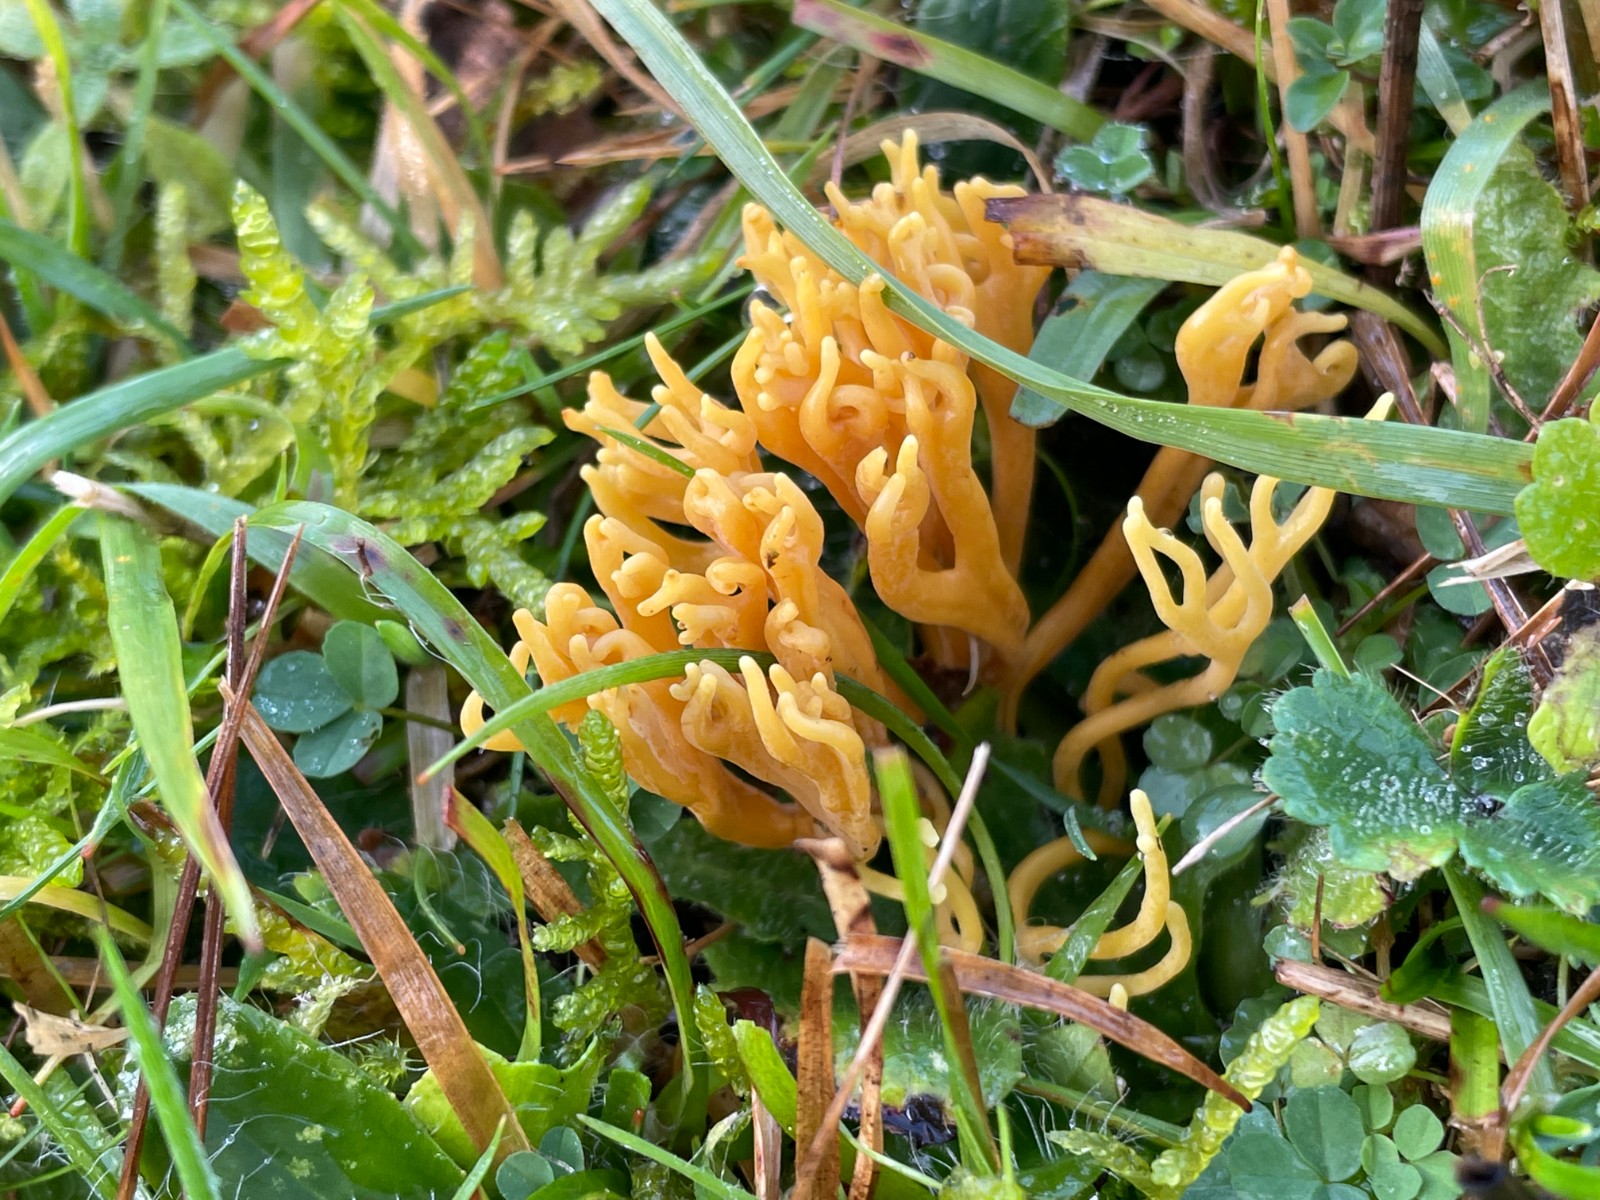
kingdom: Fungi
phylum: Basidiomycota
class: Agaricomycetes
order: Agaricales
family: Clavariaceae
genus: Clavulinopsis
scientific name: Clavulinopsis corniculata
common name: eng-køllesvamp
